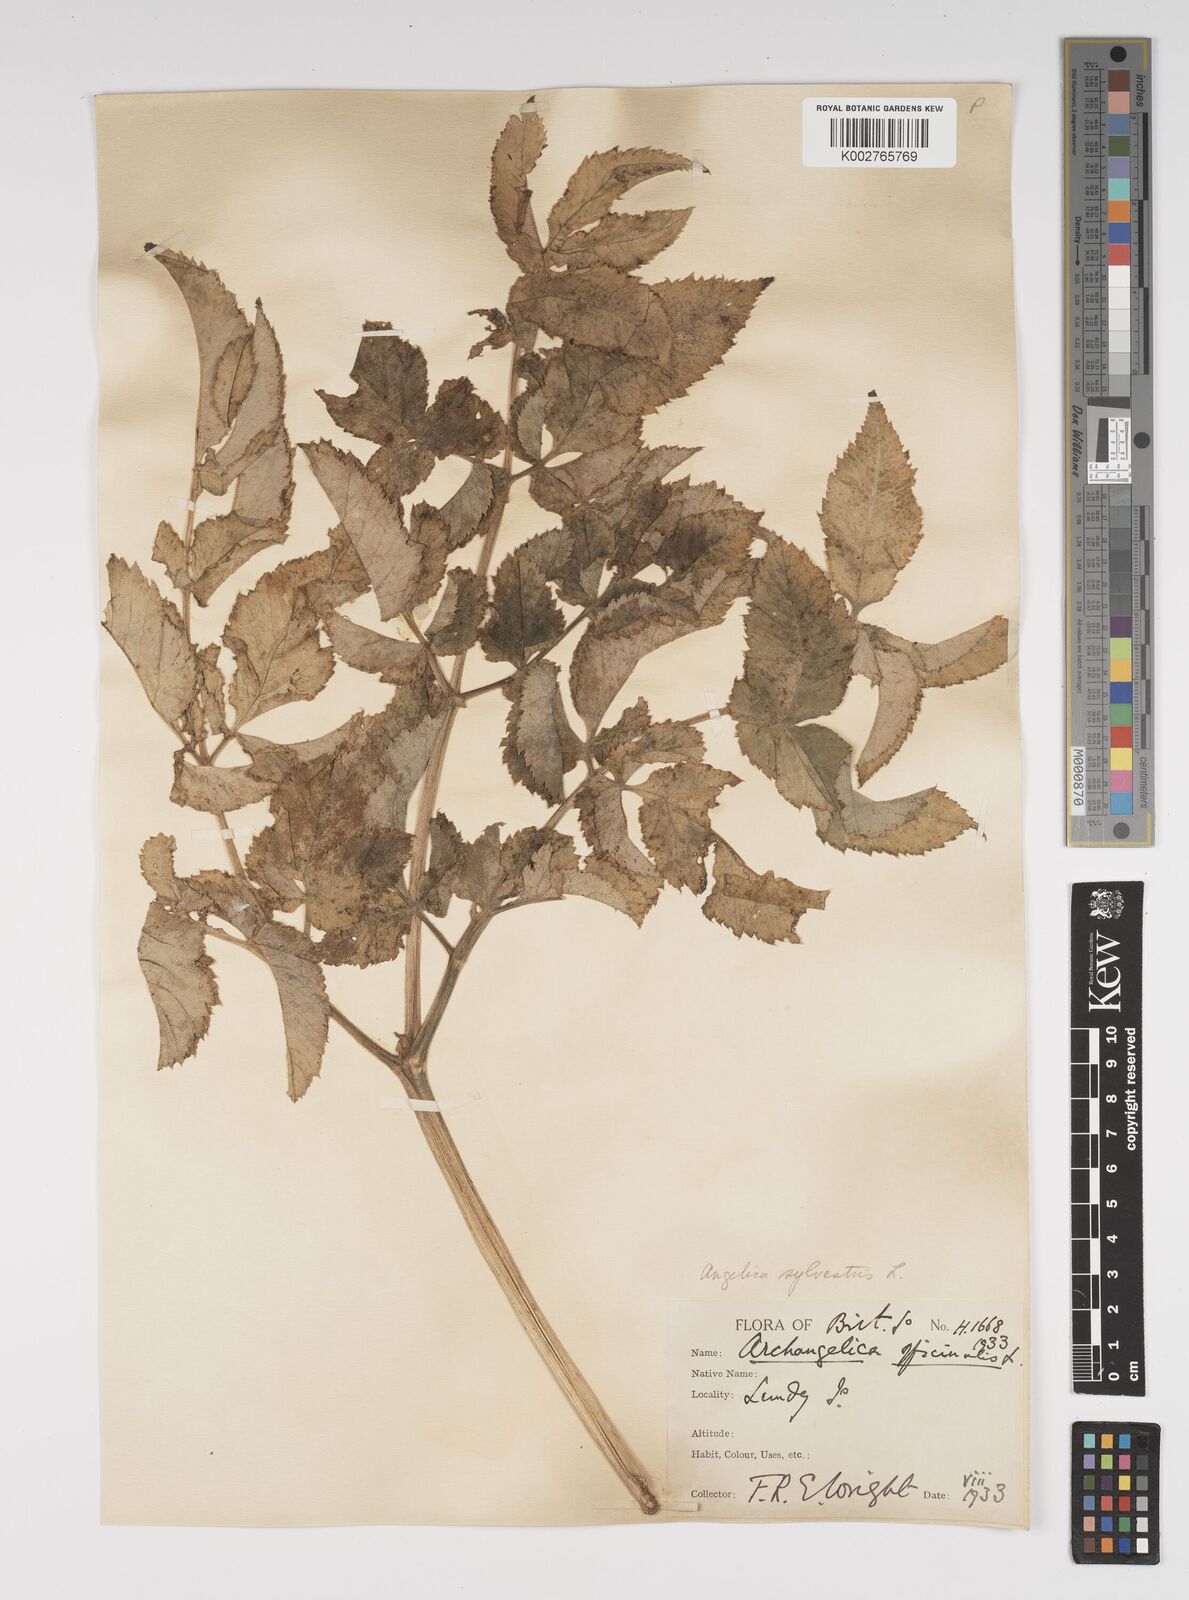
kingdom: Plantae
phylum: Tracheophyta
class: Magnoliopsida
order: Apiales
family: Apiaceae
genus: Angelica
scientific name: Angelica sylvestris
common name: Wild angelica
